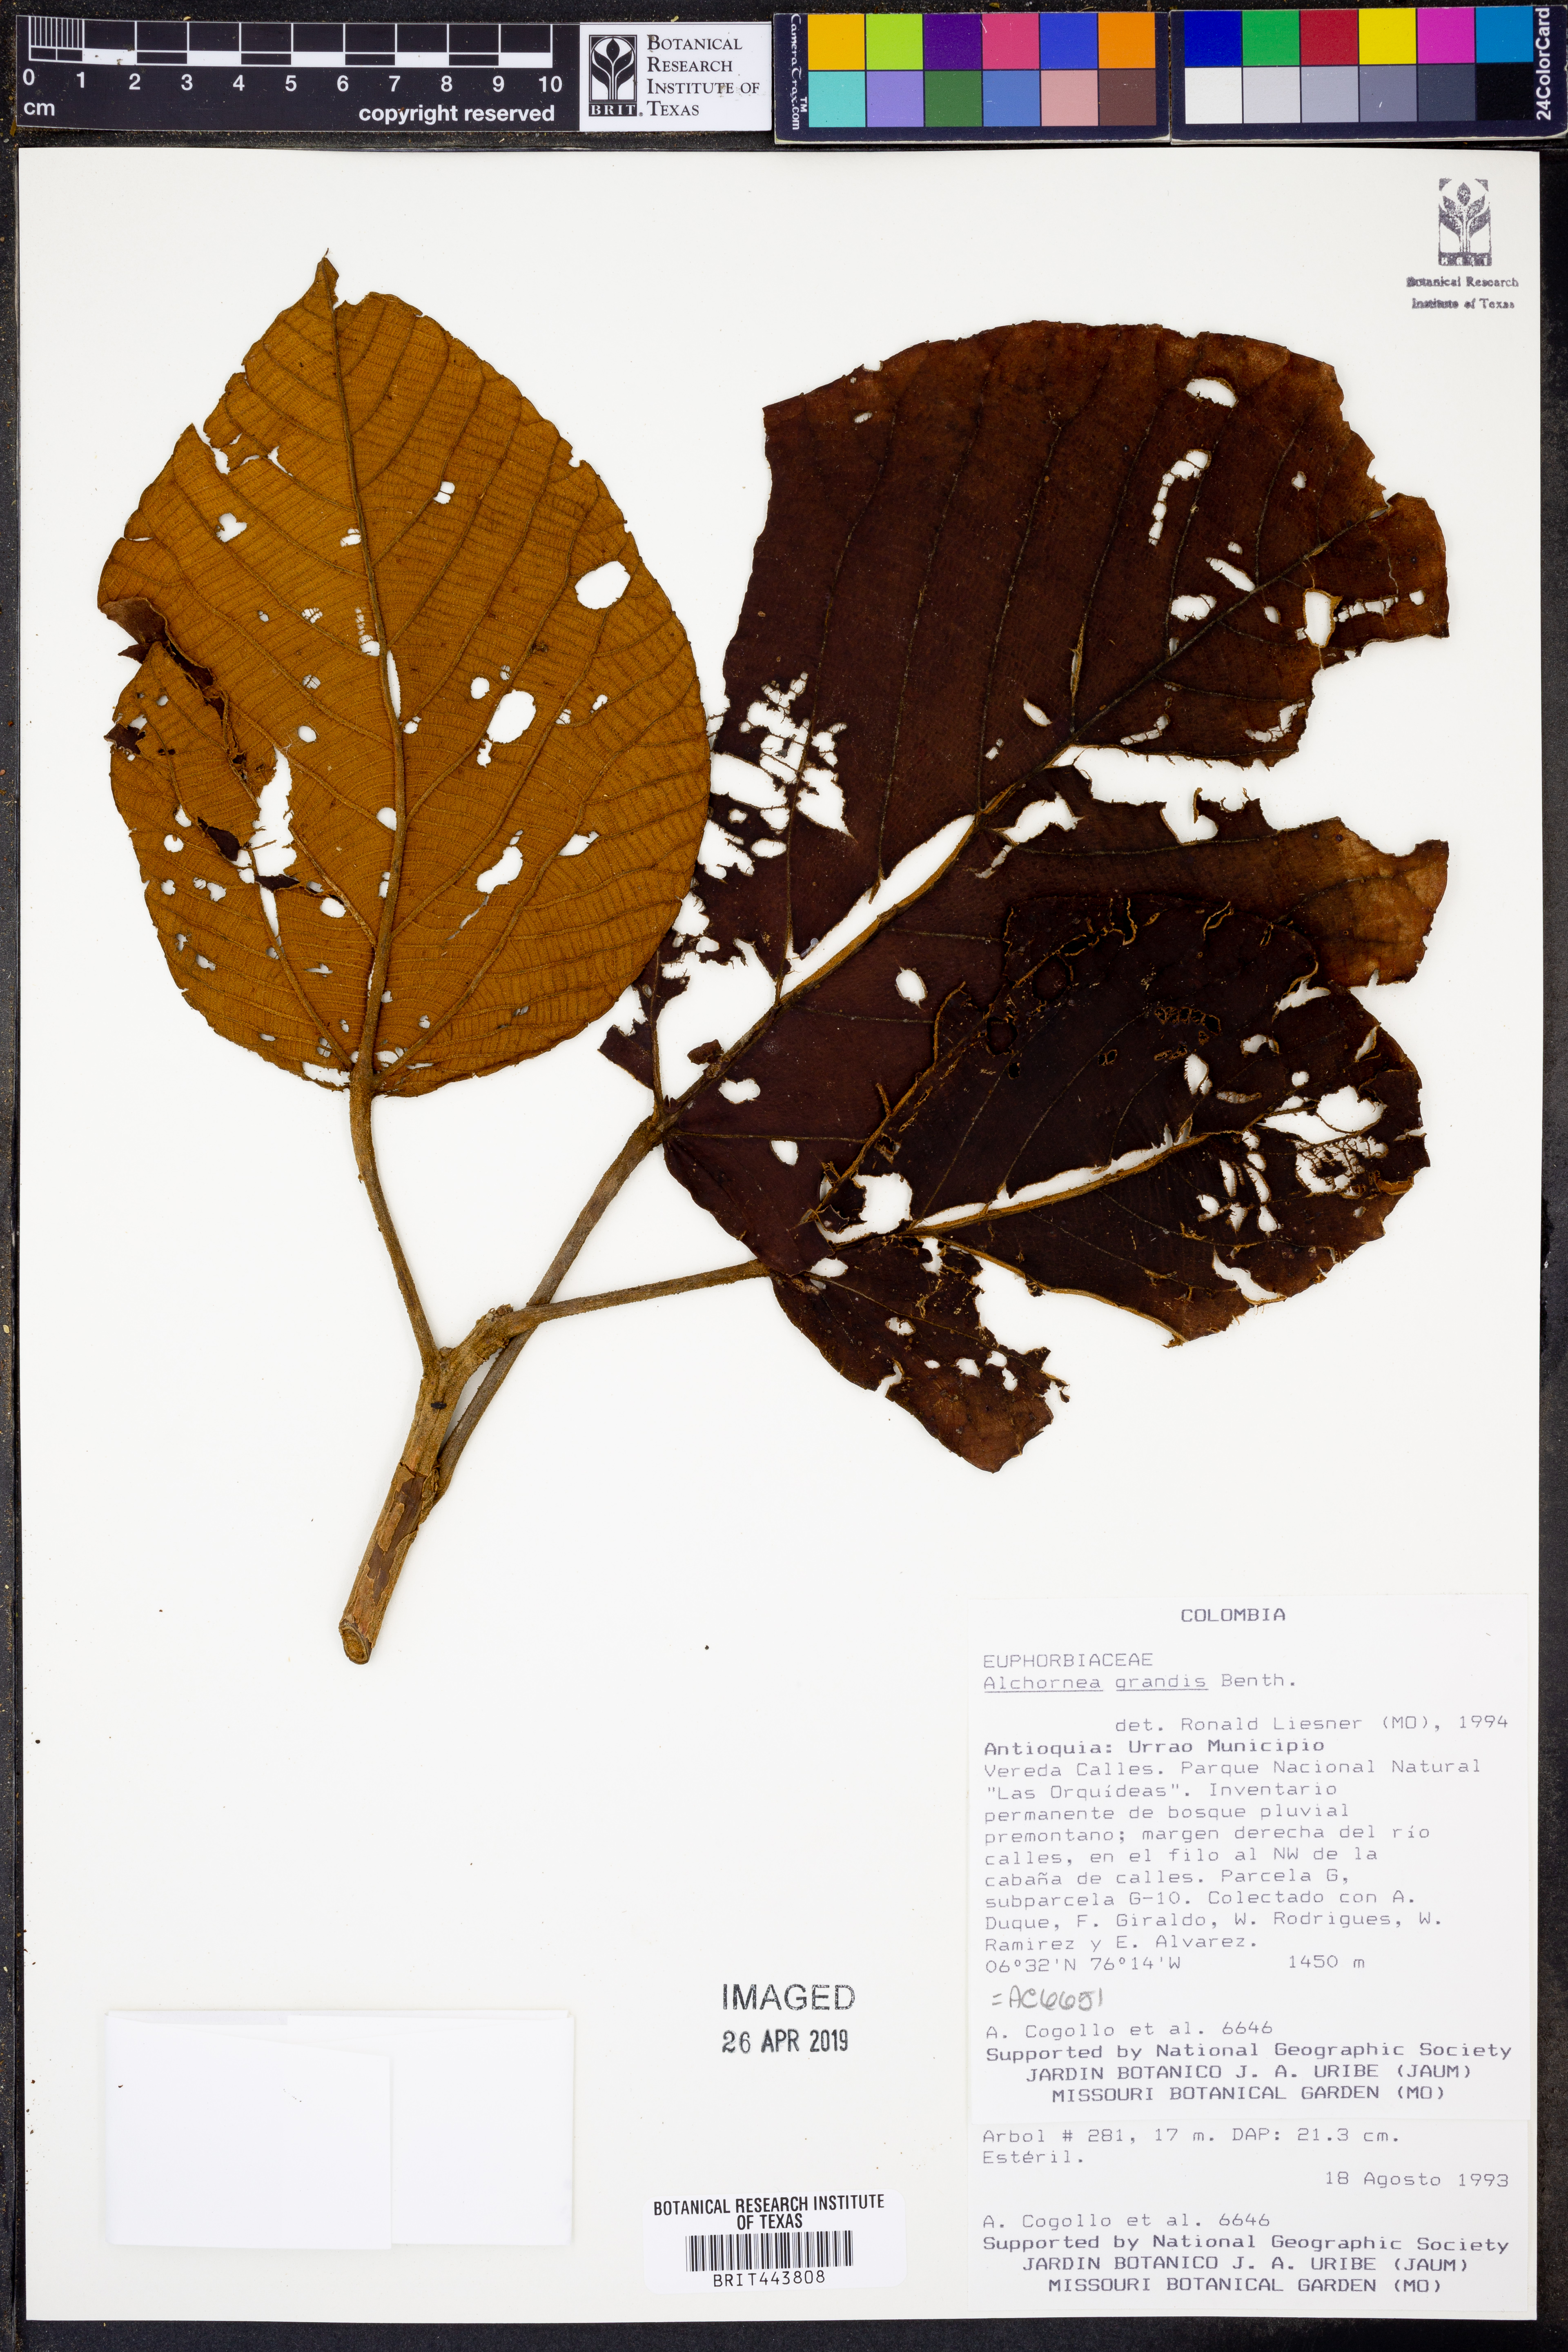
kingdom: Plantae
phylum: Tracheophyta
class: Magnoliopsida
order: Malpighiales
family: Euphorbiaceae
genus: Alchornea
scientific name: Alchornea grandis
